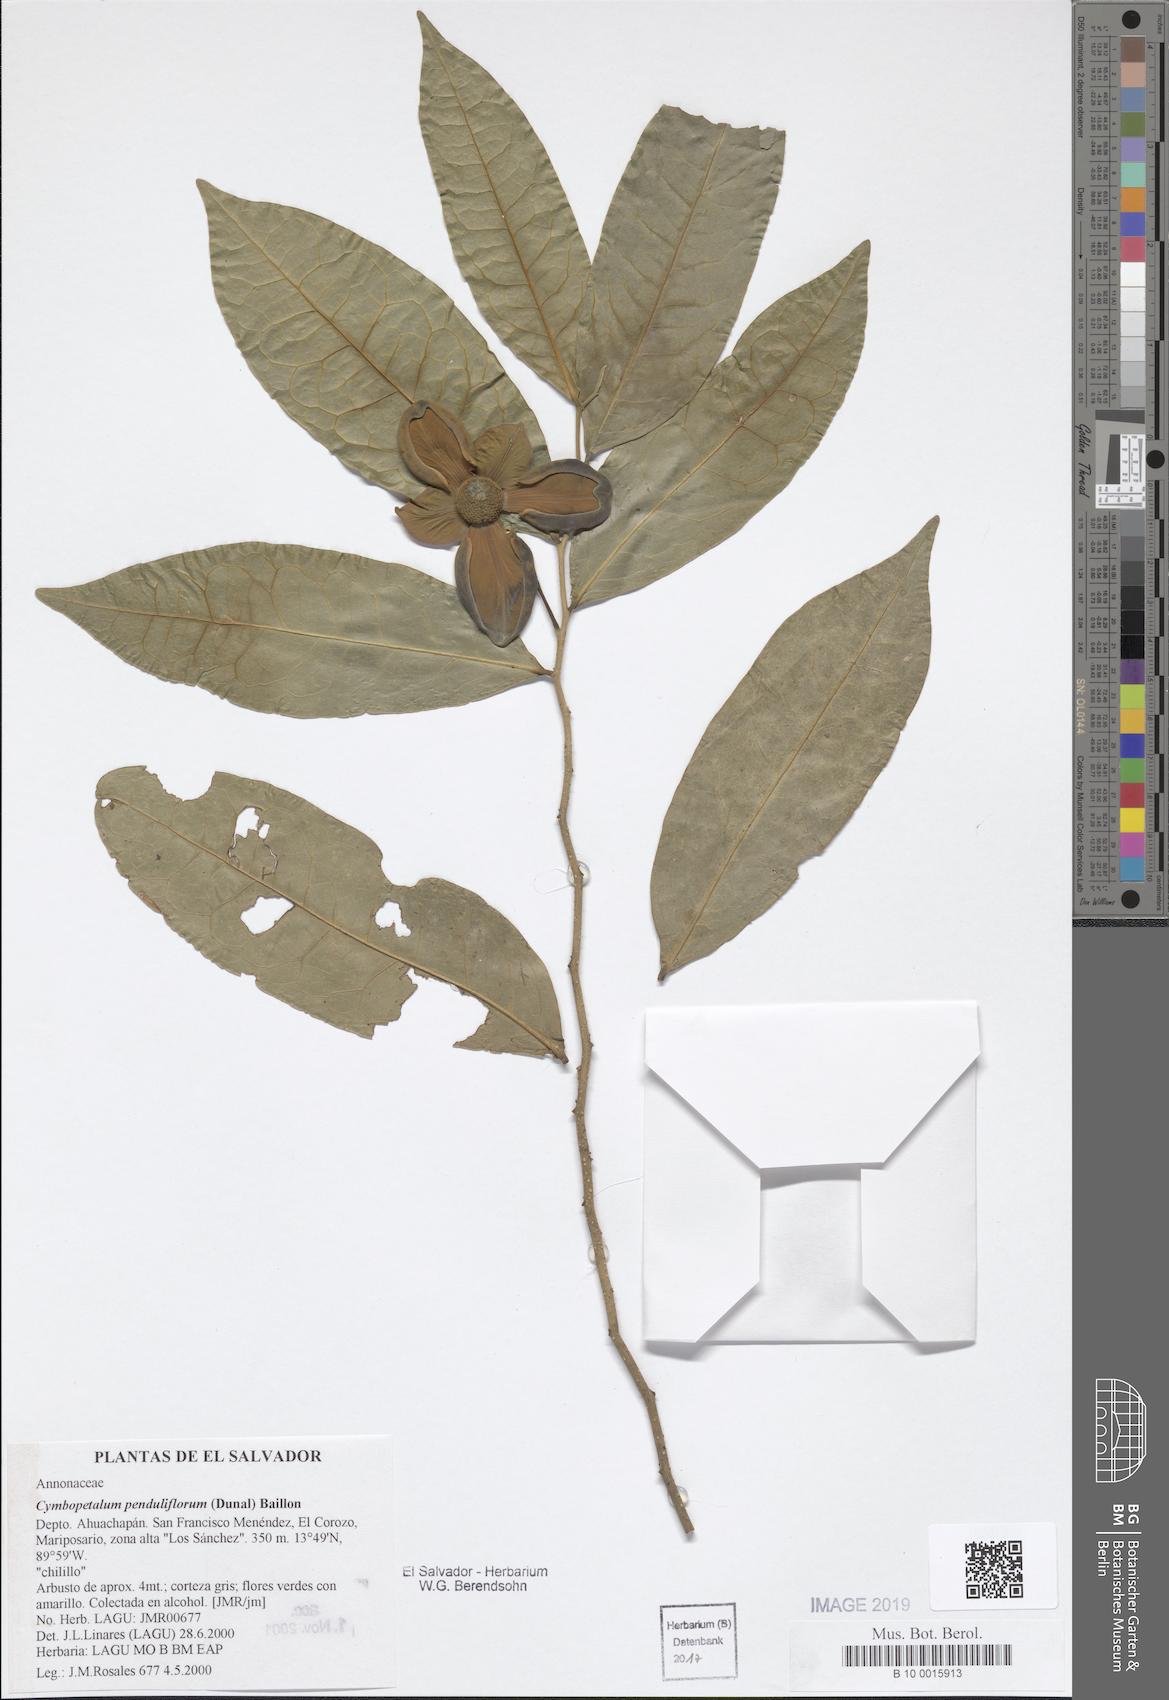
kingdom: Plantae
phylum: Tracheophyta
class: Magnoliopsida
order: Magnoliales
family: Annonaceae
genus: Cymbopetalum
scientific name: Cymbopetalum penduliflorum
